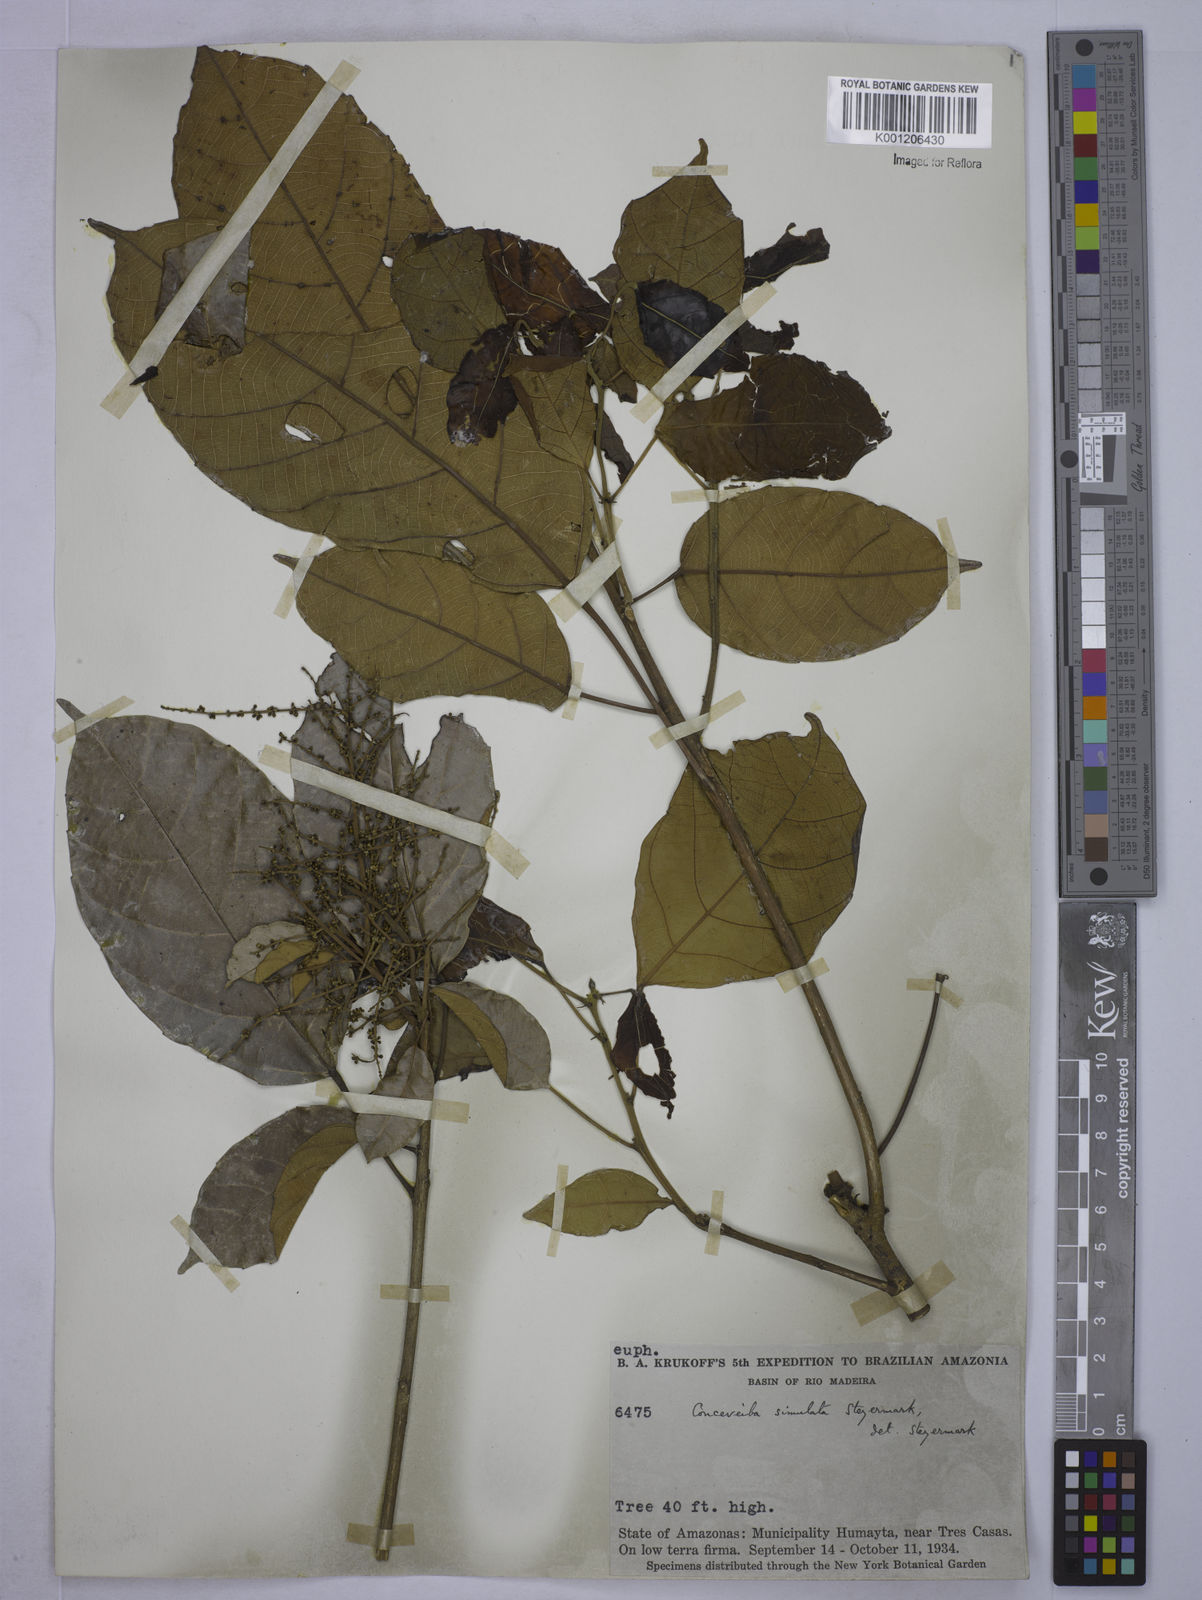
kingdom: Plantae
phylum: Tracheophyta
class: Magnoliopsida
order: Malpighiales
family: Euphorbiaceae
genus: Conceveiba
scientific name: Conceveiba krukoffii
